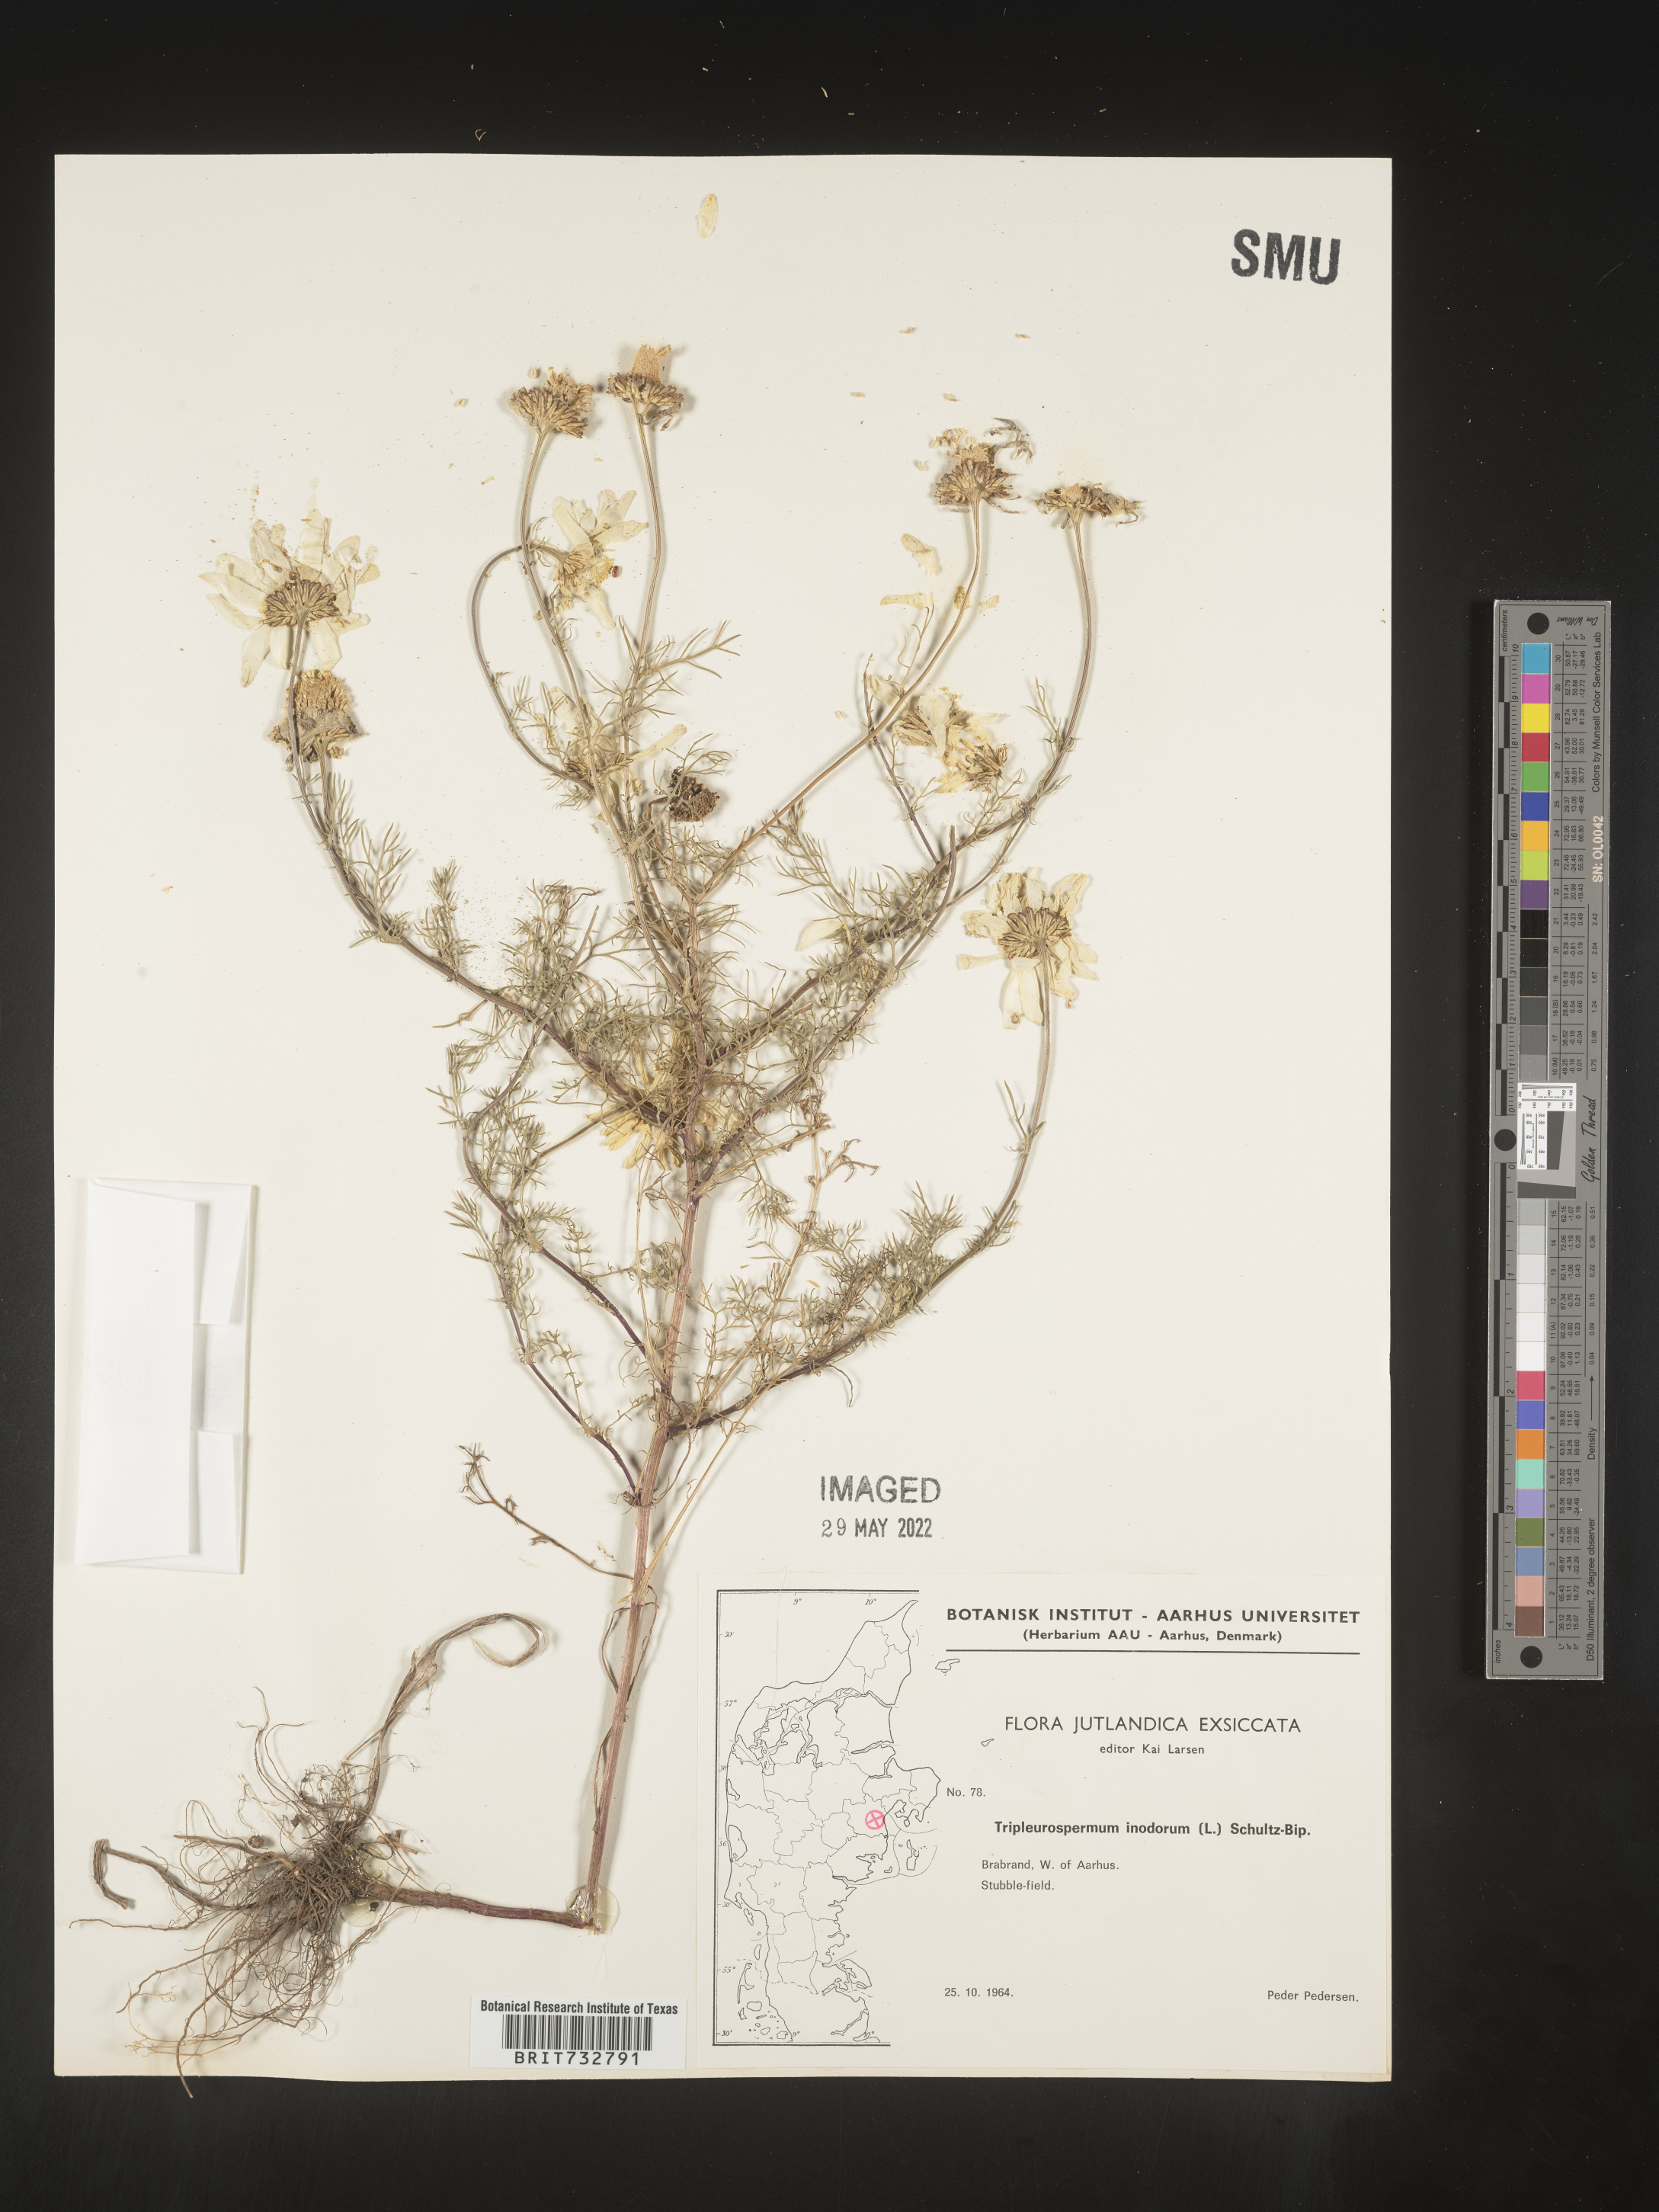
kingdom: Plantae
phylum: Tracheophyta
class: Magnoliopsida
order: Asterales
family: Asteraceae
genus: Matricaria
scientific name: Matricaria
